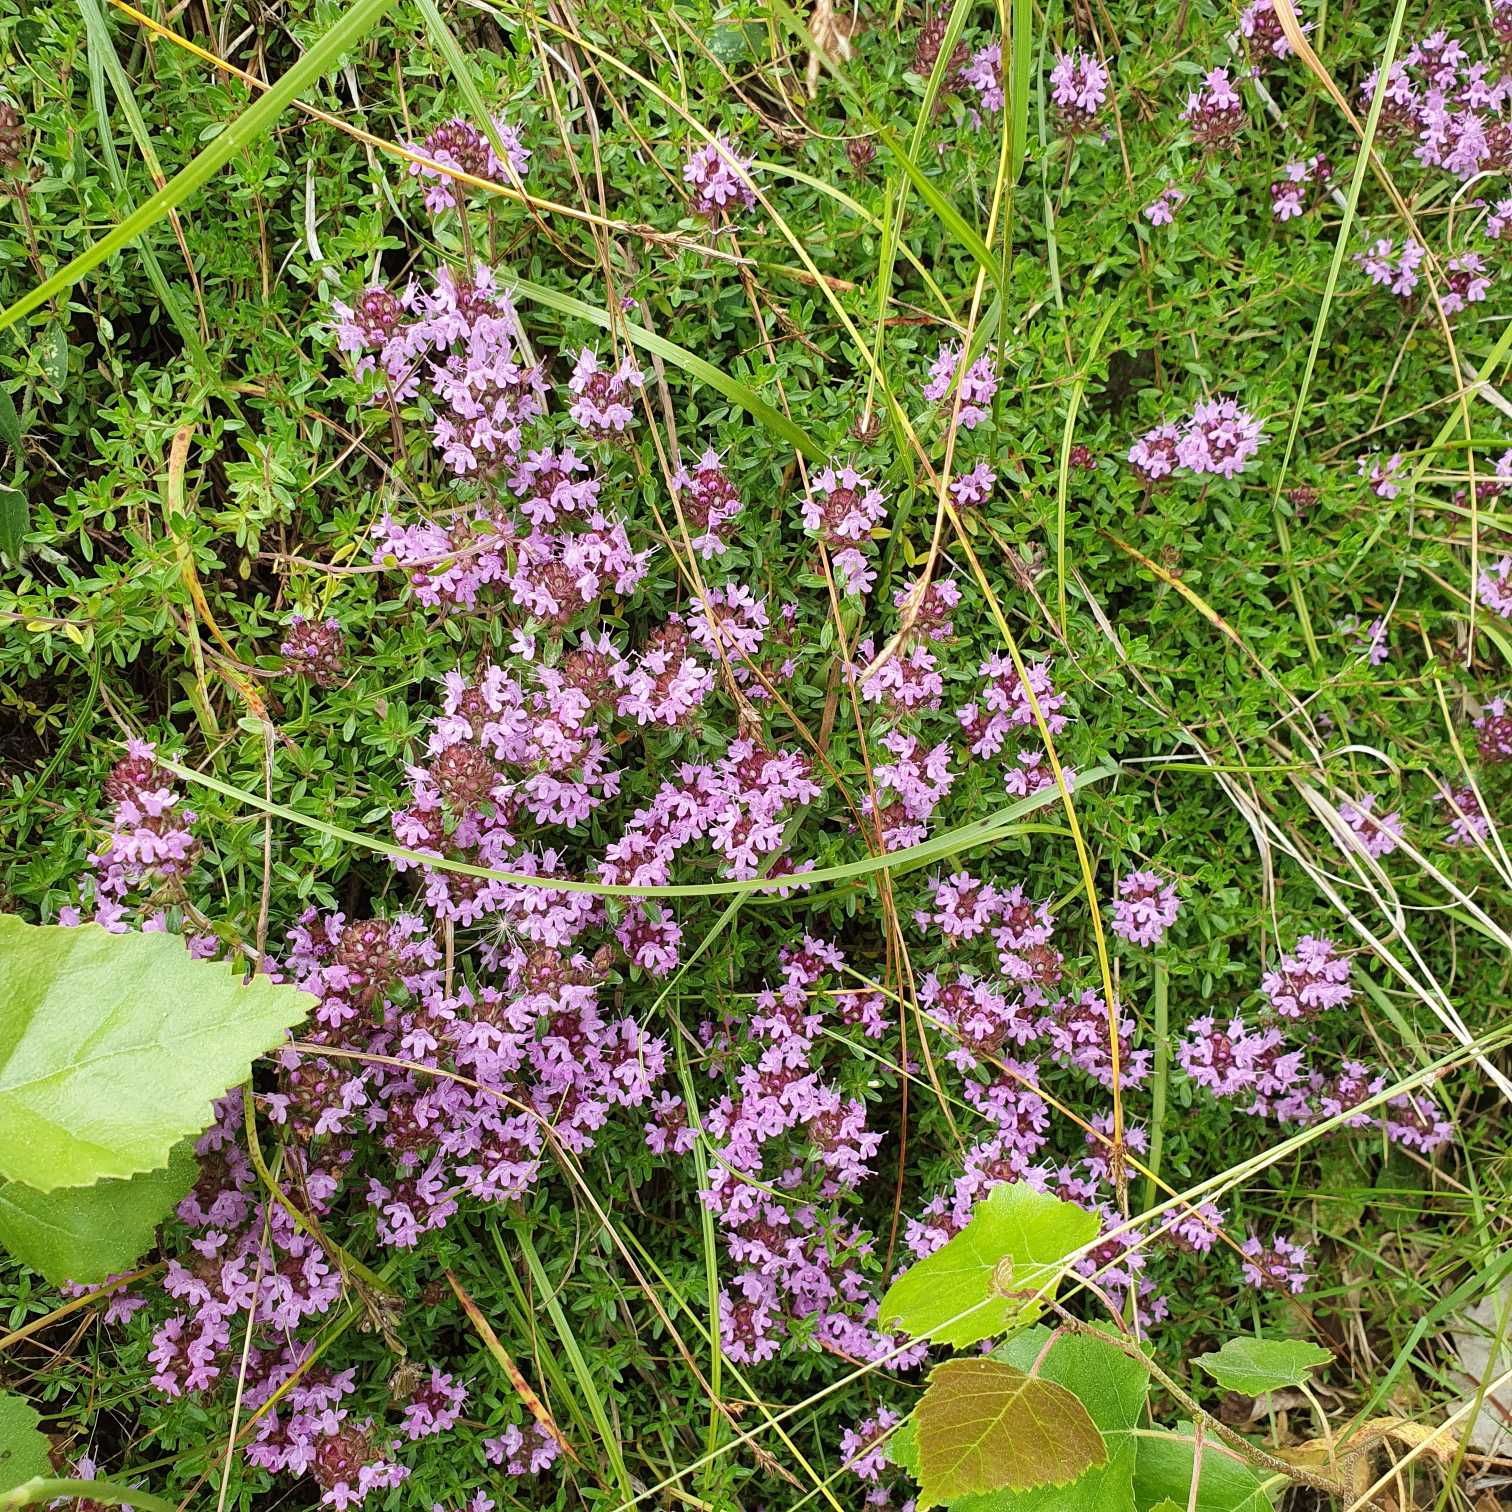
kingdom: Plantae
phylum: Tracheophyta
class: Magnoliopsida
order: Lamiales
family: Lamiaceae
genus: Thymus
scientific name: Thymus serpyllum
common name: Smalbladet timian
